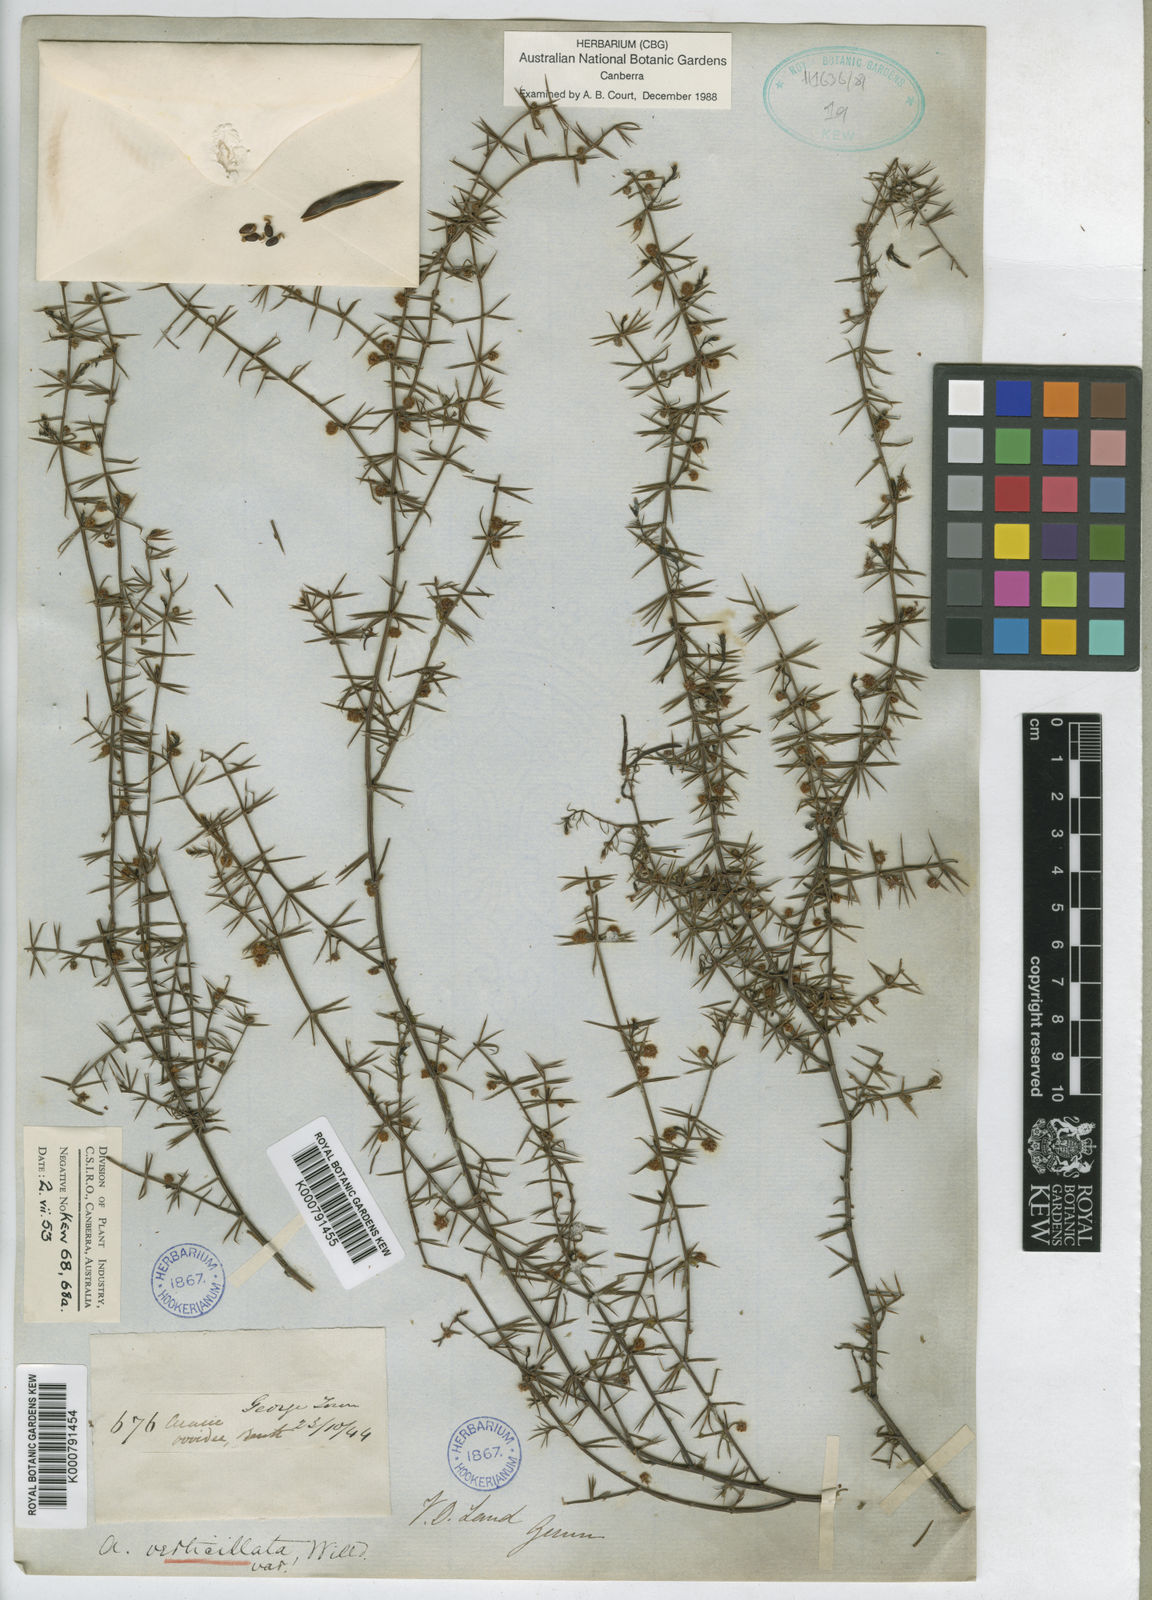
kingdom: Plantae
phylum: Tracheophyta
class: Magnoliopsida
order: Fabales
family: Fabaceae
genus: Acacia
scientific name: Acacia verticillata
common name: Prickly moses
